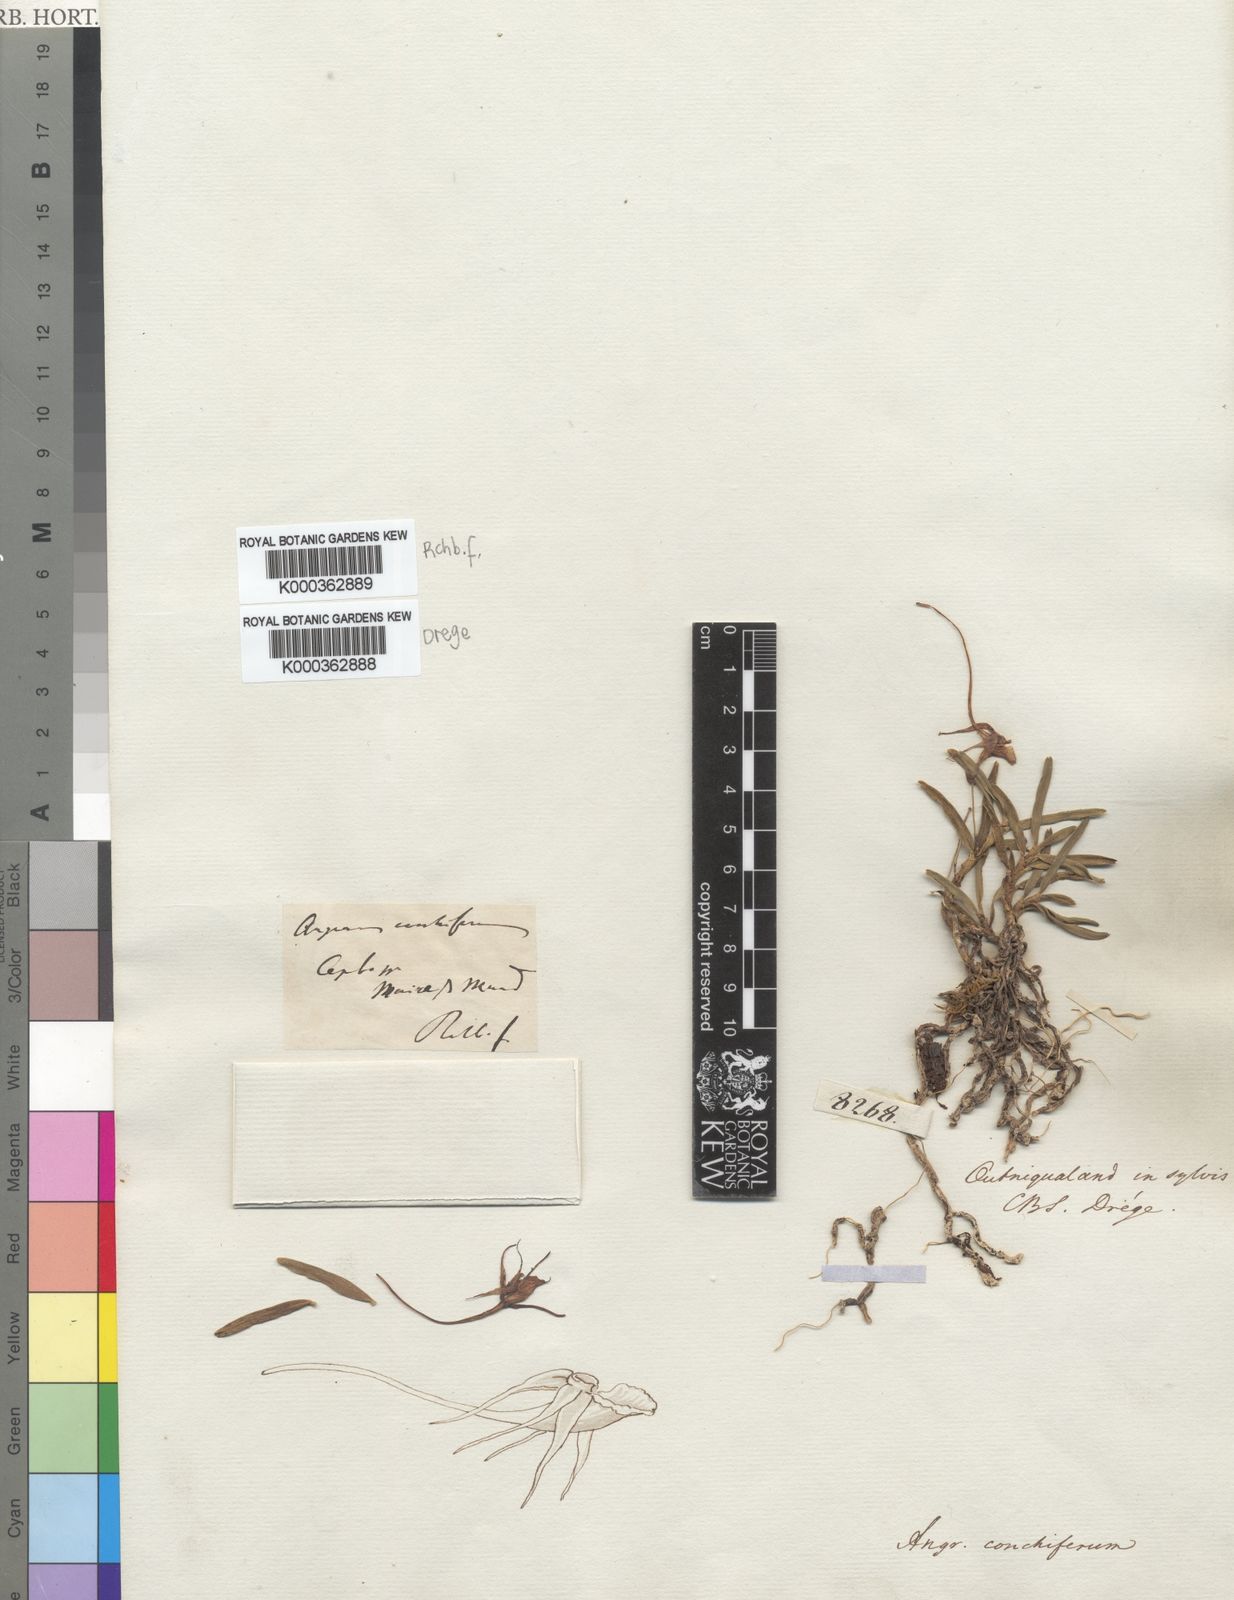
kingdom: Plantae
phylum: Tracheophyta
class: Liliopsida
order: Asparagales
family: Orchidaceae
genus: Angraecum
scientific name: Angraecum conchiferum
